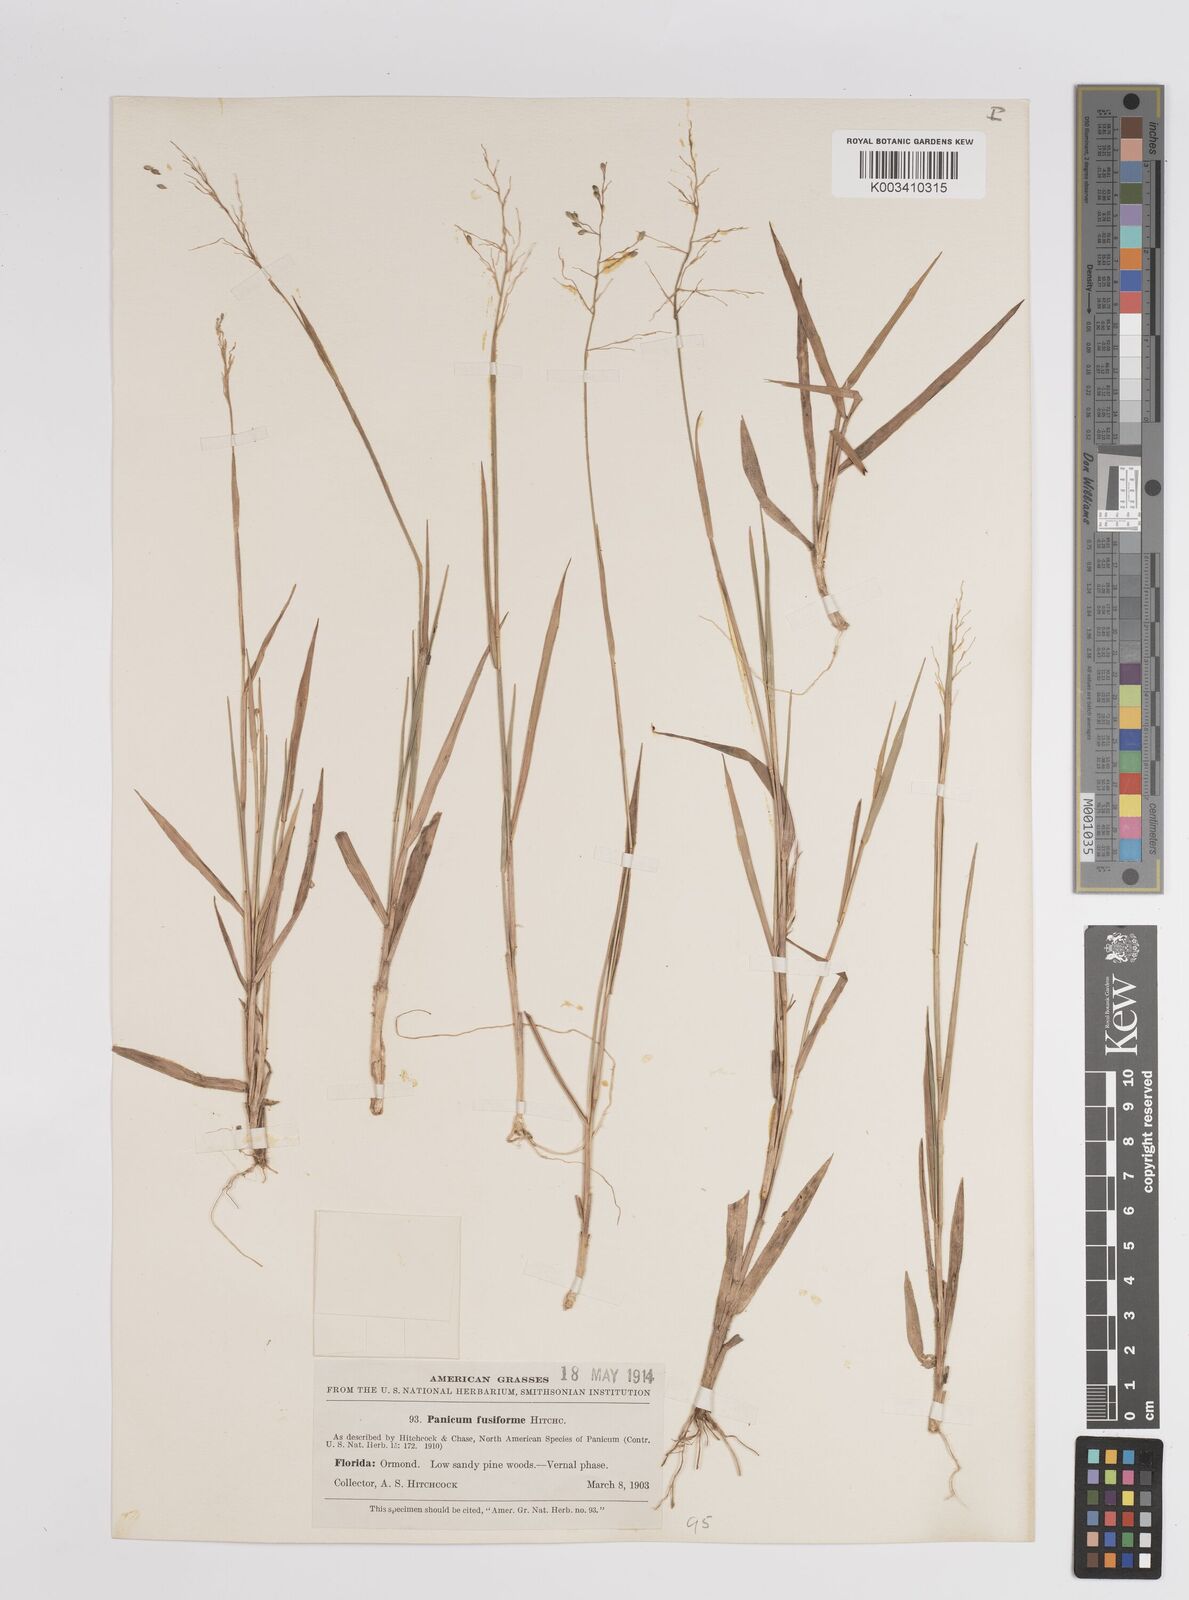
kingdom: Plantae
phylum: Tracheophyta
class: Liliopsida
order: Poales
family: Poaceae
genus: Dichanthelium
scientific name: Dichanthelium aciculare
